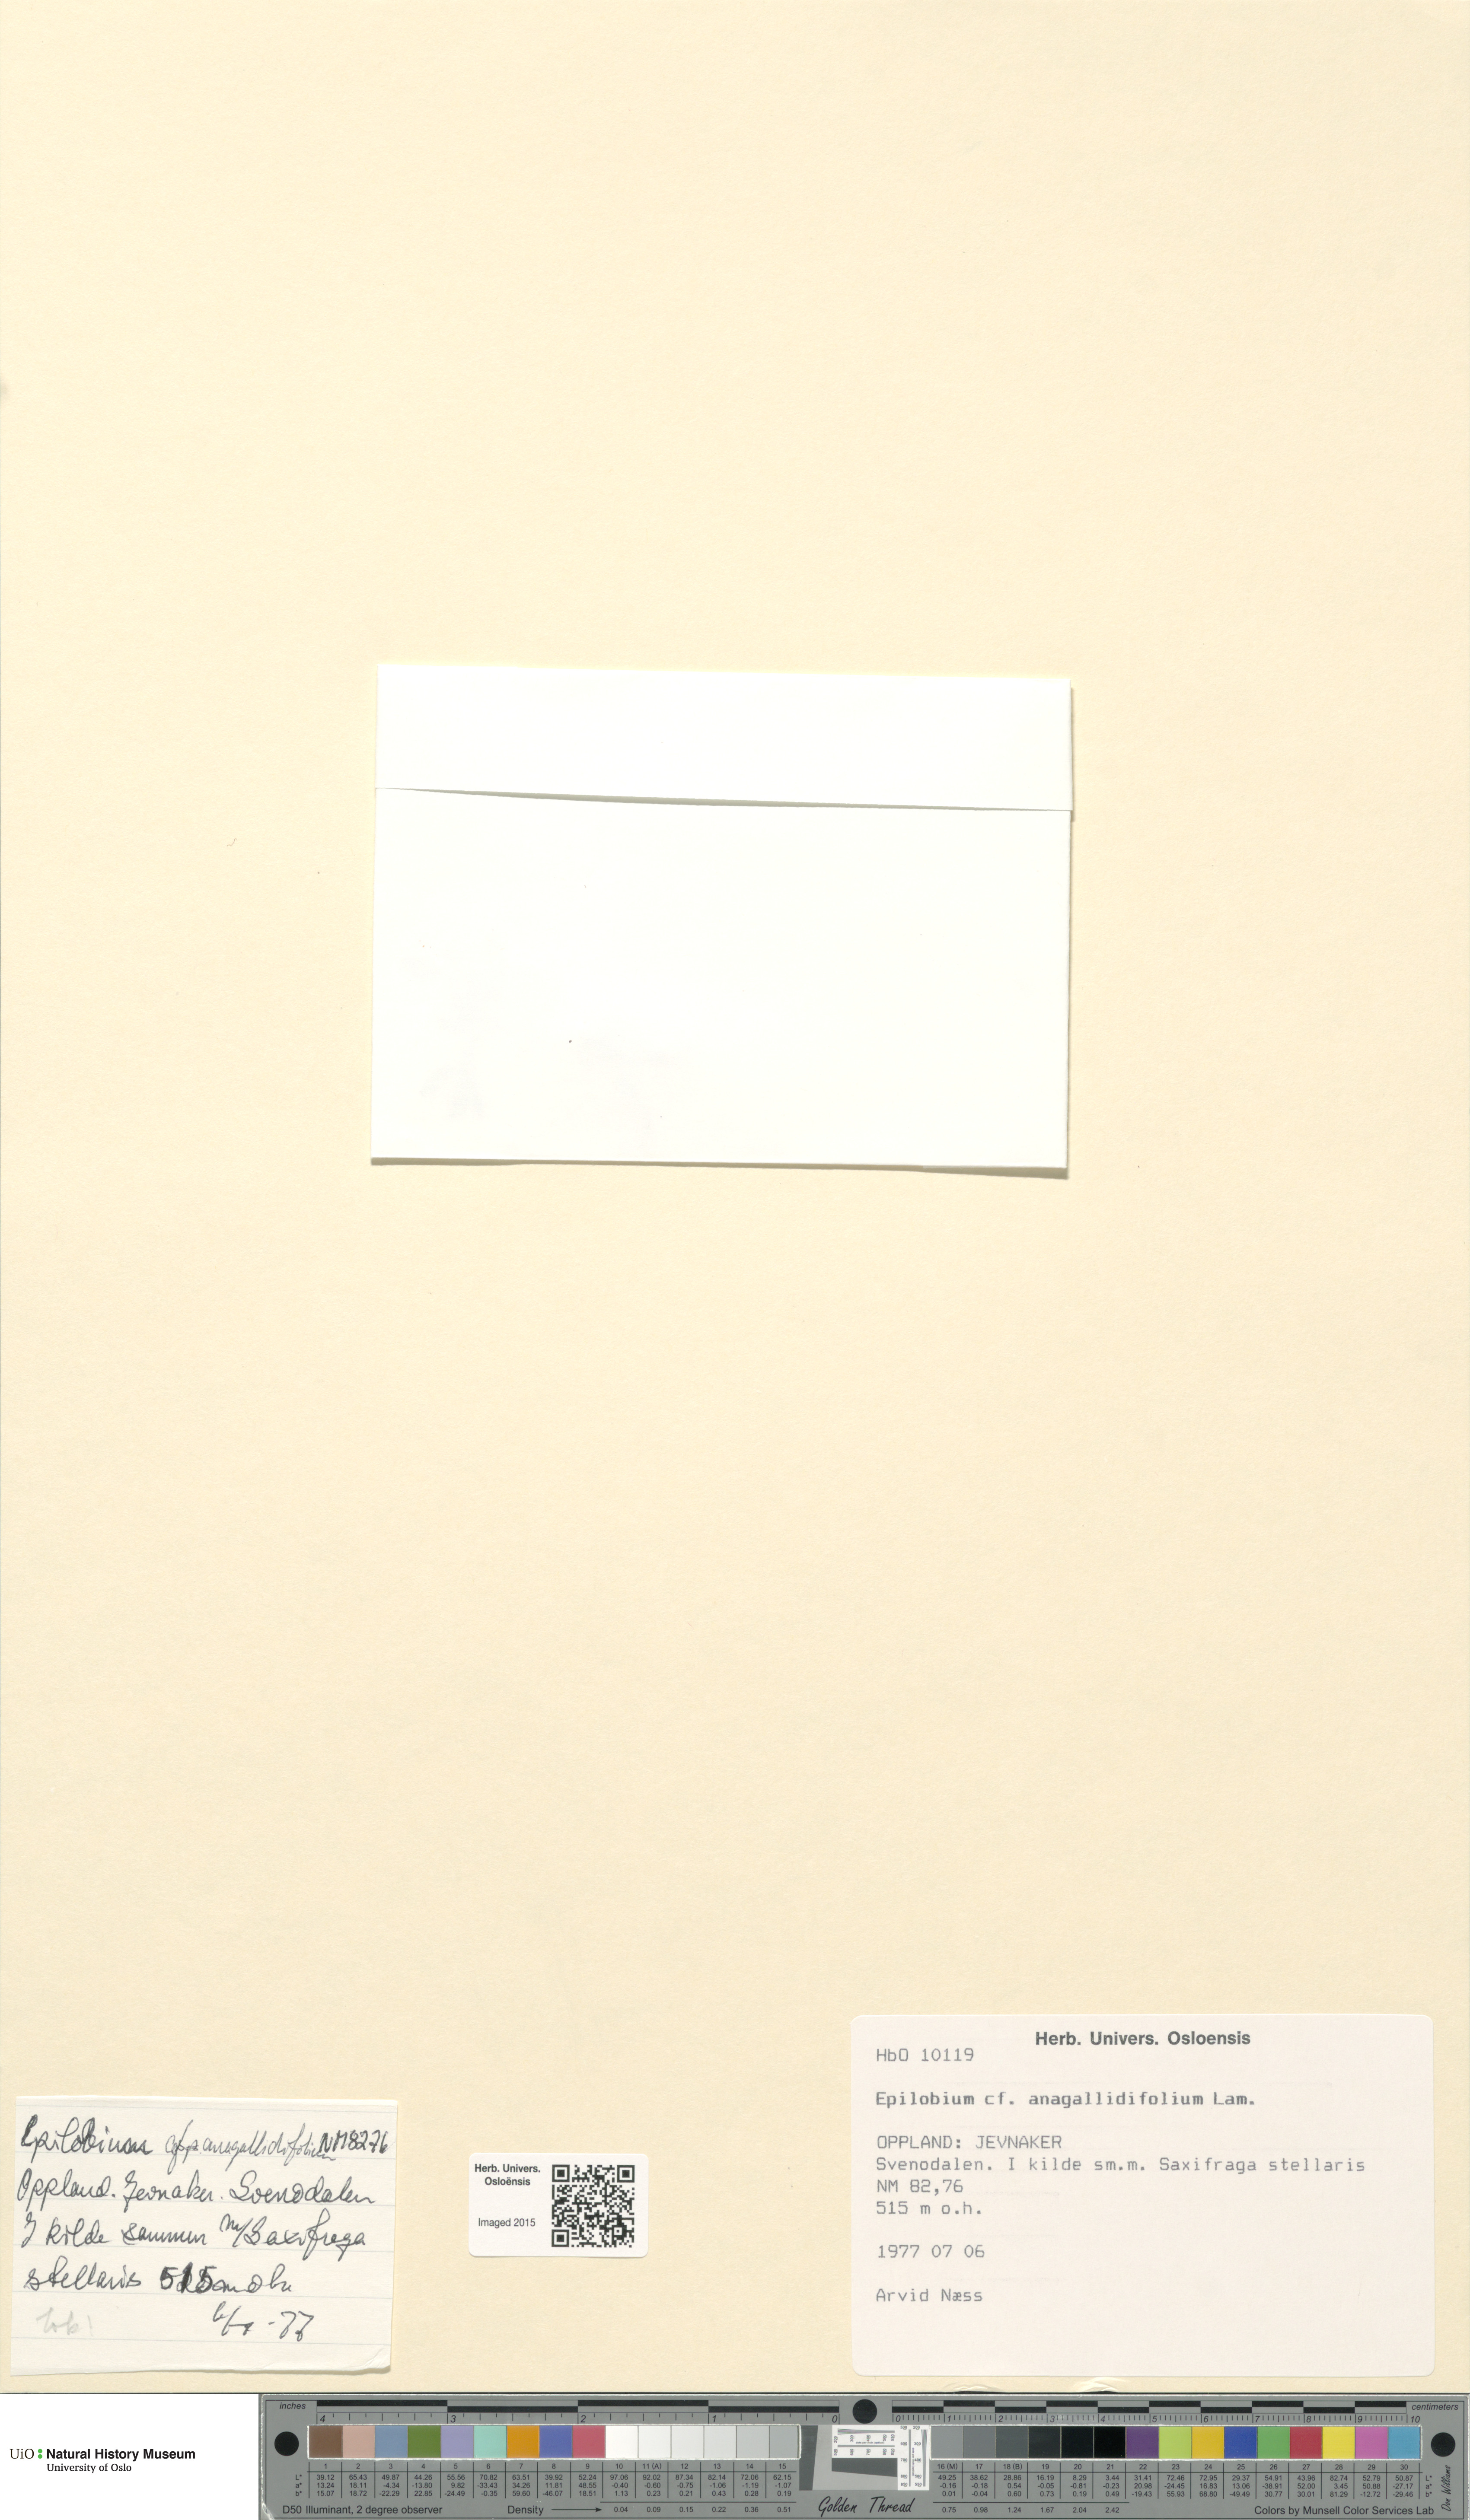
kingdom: Plantae
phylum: Tracheophyta
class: Magnoliopsida
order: Myrtales
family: Onagraceae
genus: Epilobium
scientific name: Epilobium anagallidifolium
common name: Alpine willowherb
